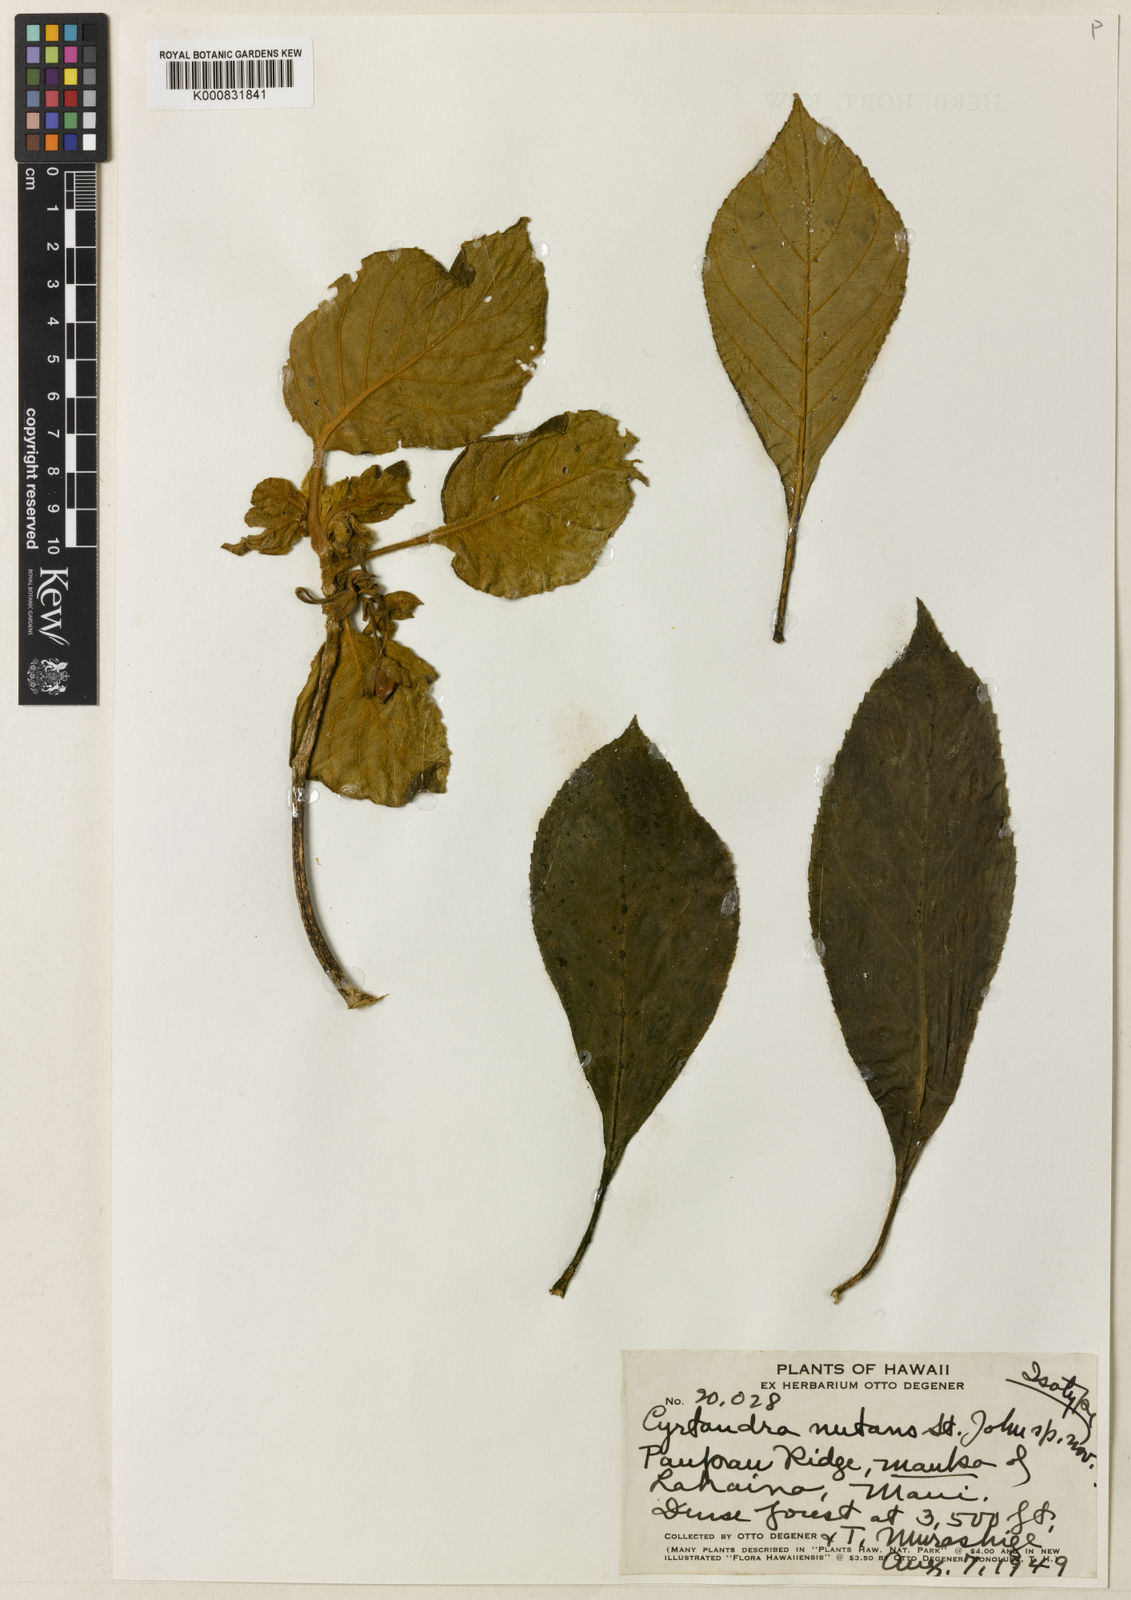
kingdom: Plantae
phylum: Tracheophyta
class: Magnoliopsida
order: Lamiales
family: Gesneriaceae
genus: Cyrtandra
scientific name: Cyrtandra nutans
